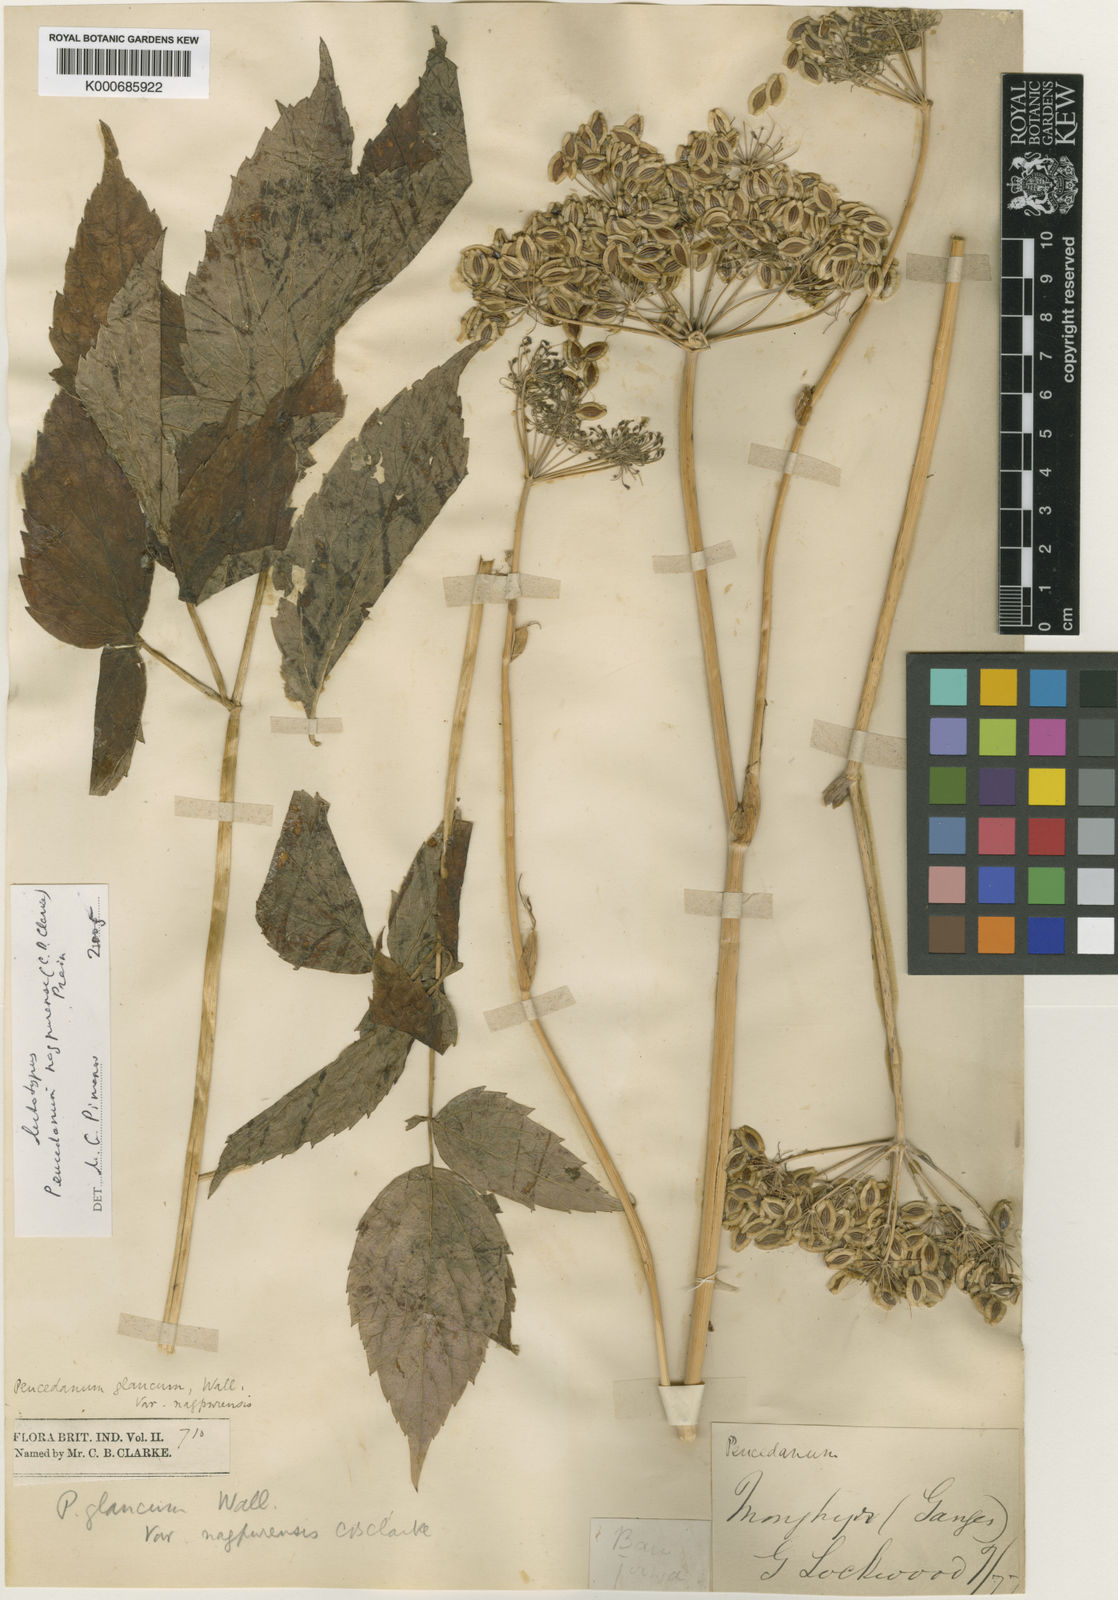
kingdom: Plantae
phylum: Tracheophyta
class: Magnoliopsida
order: Apiales
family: Apiaceae
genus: Peucedanum
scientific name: Peucedanum nagpurense
